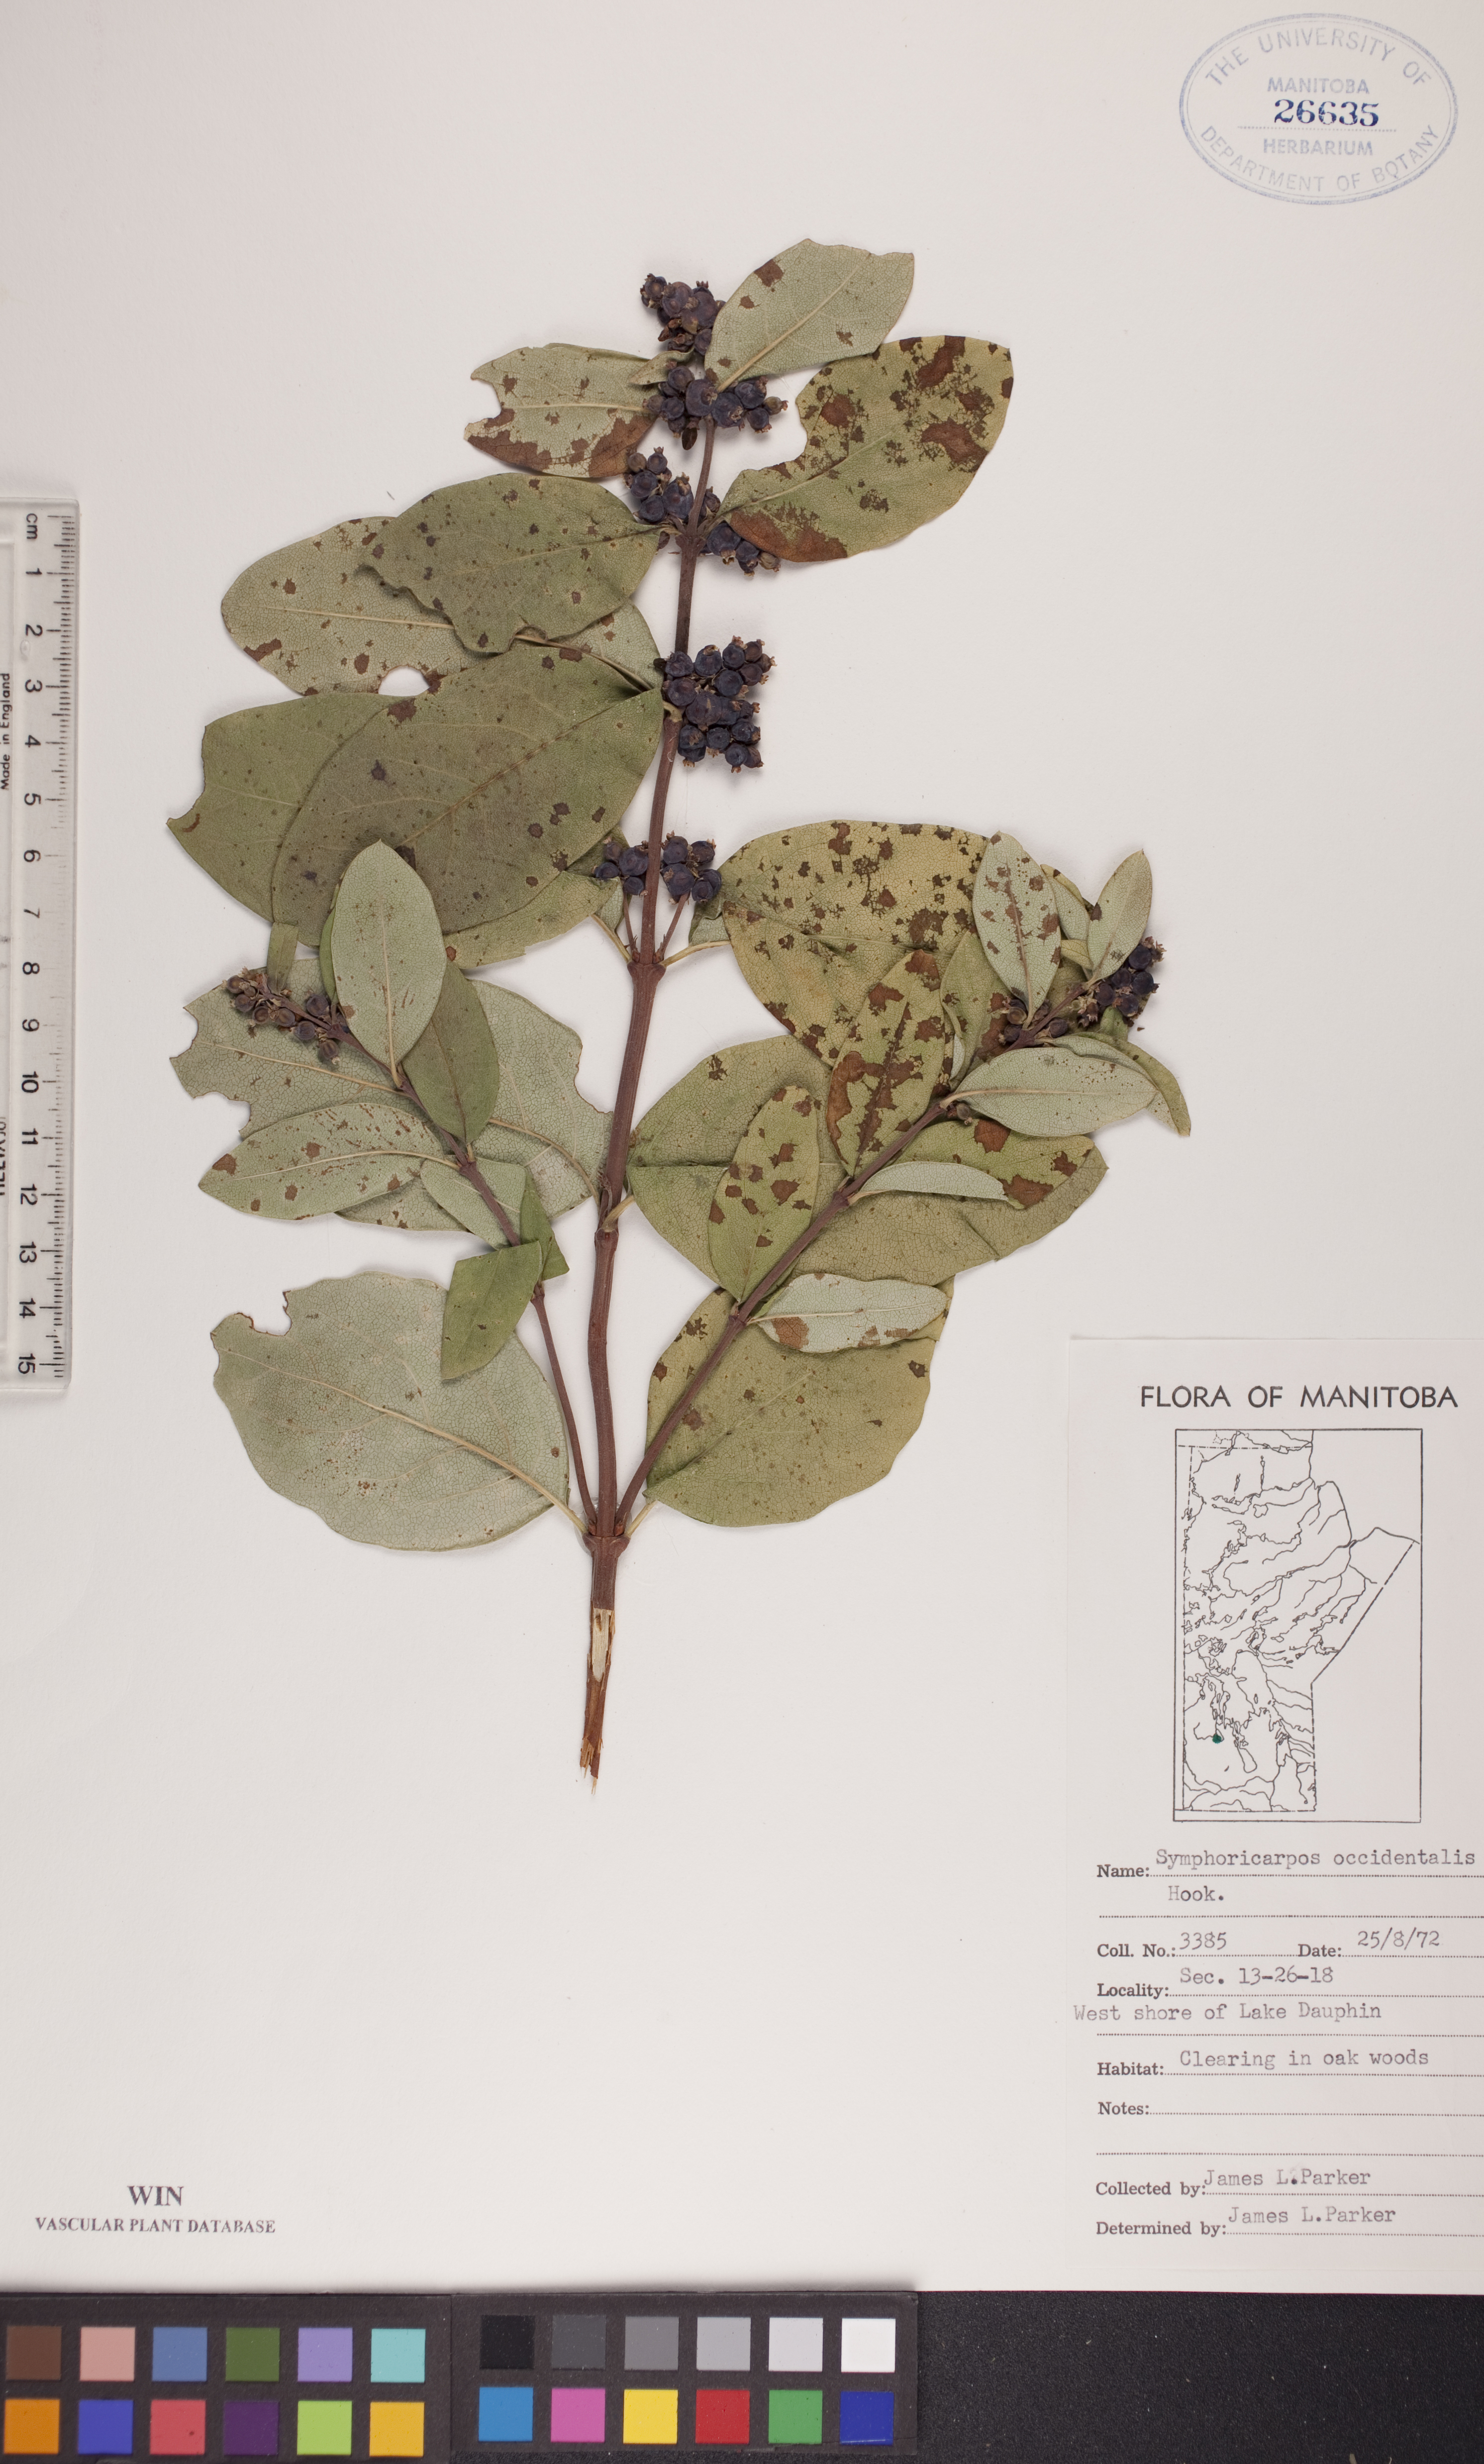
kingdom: Plantae
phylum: Tracheophyta
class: Magnoliopsida
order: Dipsacales
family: Caprifoliaceae
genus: Symphoricarpos
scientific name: Symphoricarpos occidentalis
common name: Wolfberry
